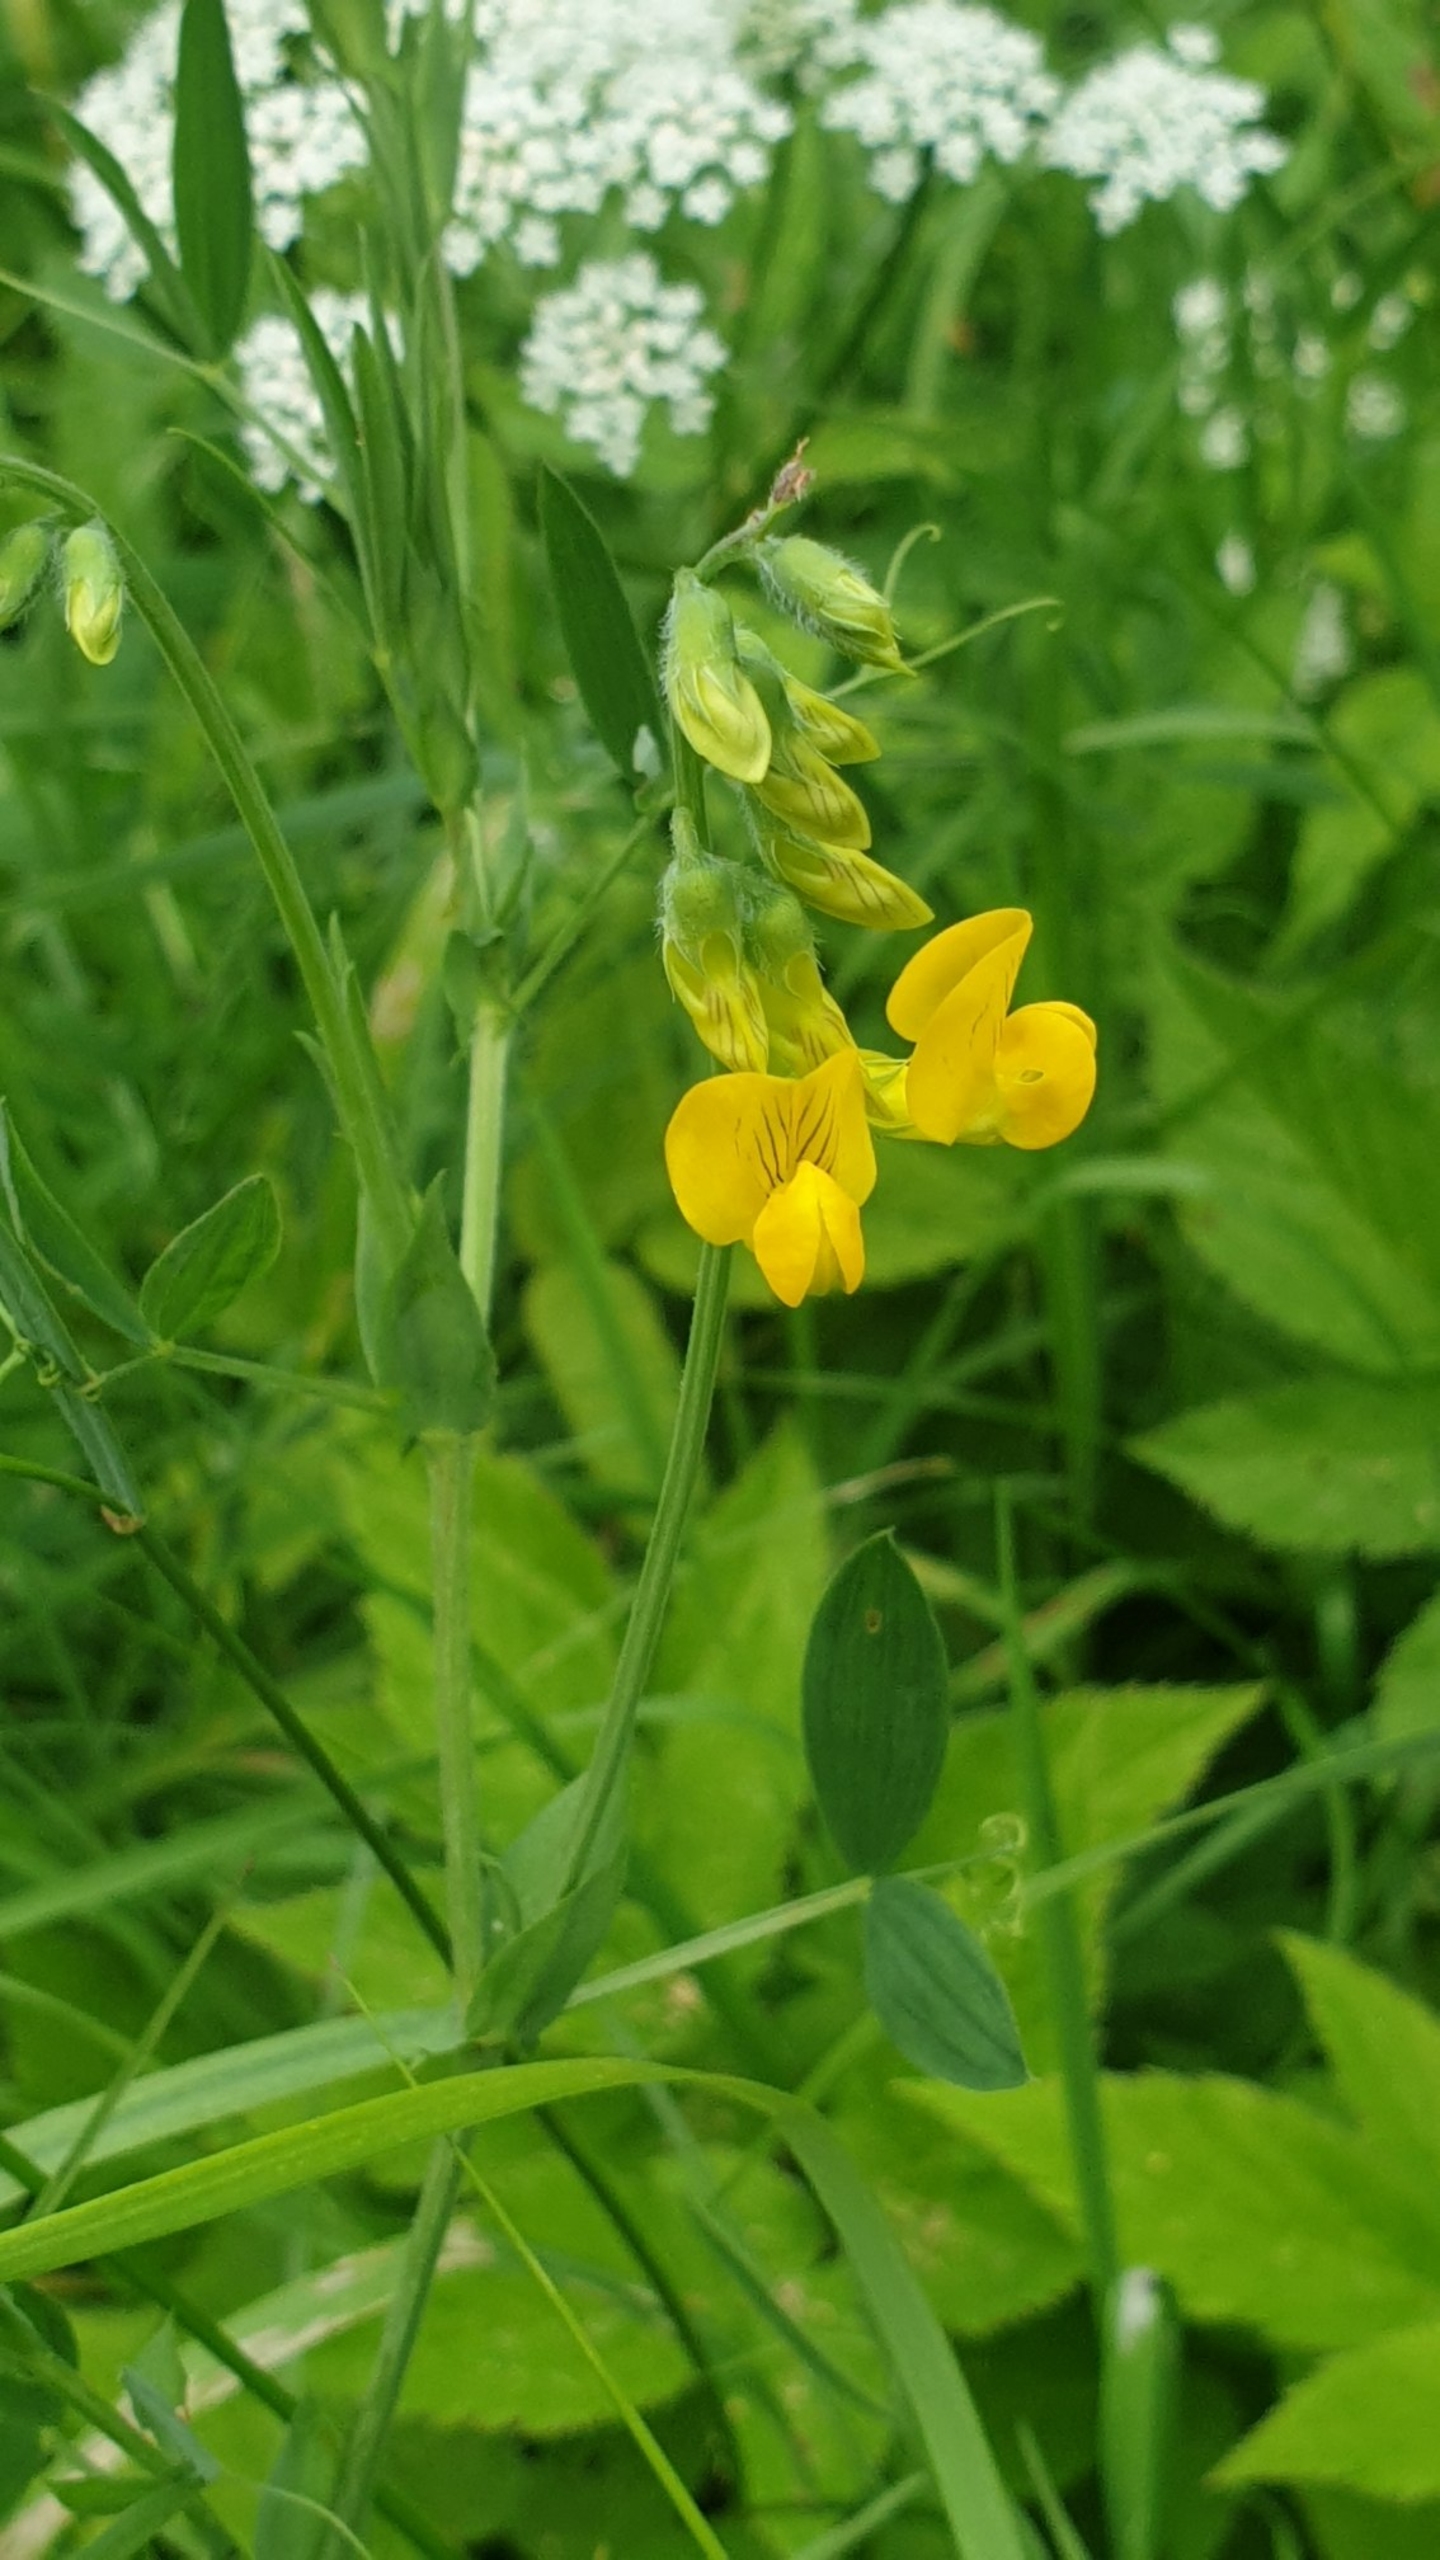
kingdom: Plantae
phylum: Tracheophyta
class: Magnoliopsida
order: Fabales
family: Fabaceae
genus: Lathyrus
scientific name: Lathyrus pratensis
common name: Gul fladbælg
